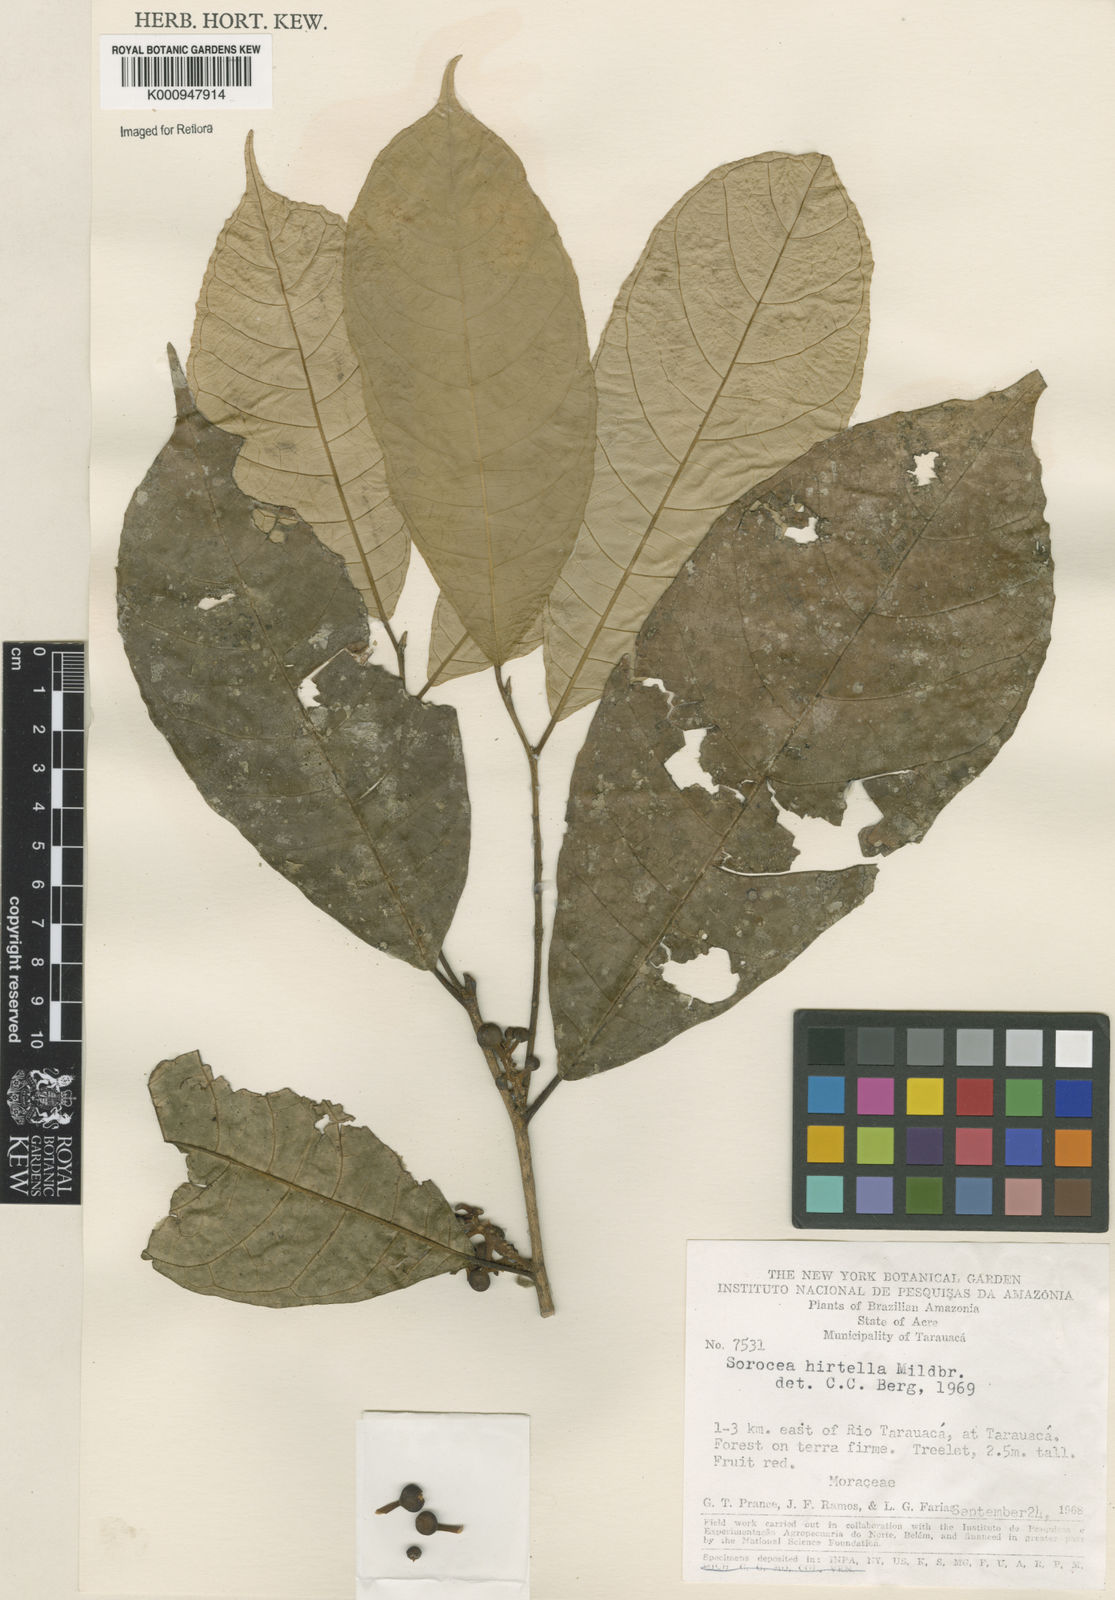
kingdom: Plantae
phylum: Tracheophyta
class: Magnoliopsida
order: Rosales
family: Moraceae
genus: Sorocea
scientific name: Sorocea pubivena
